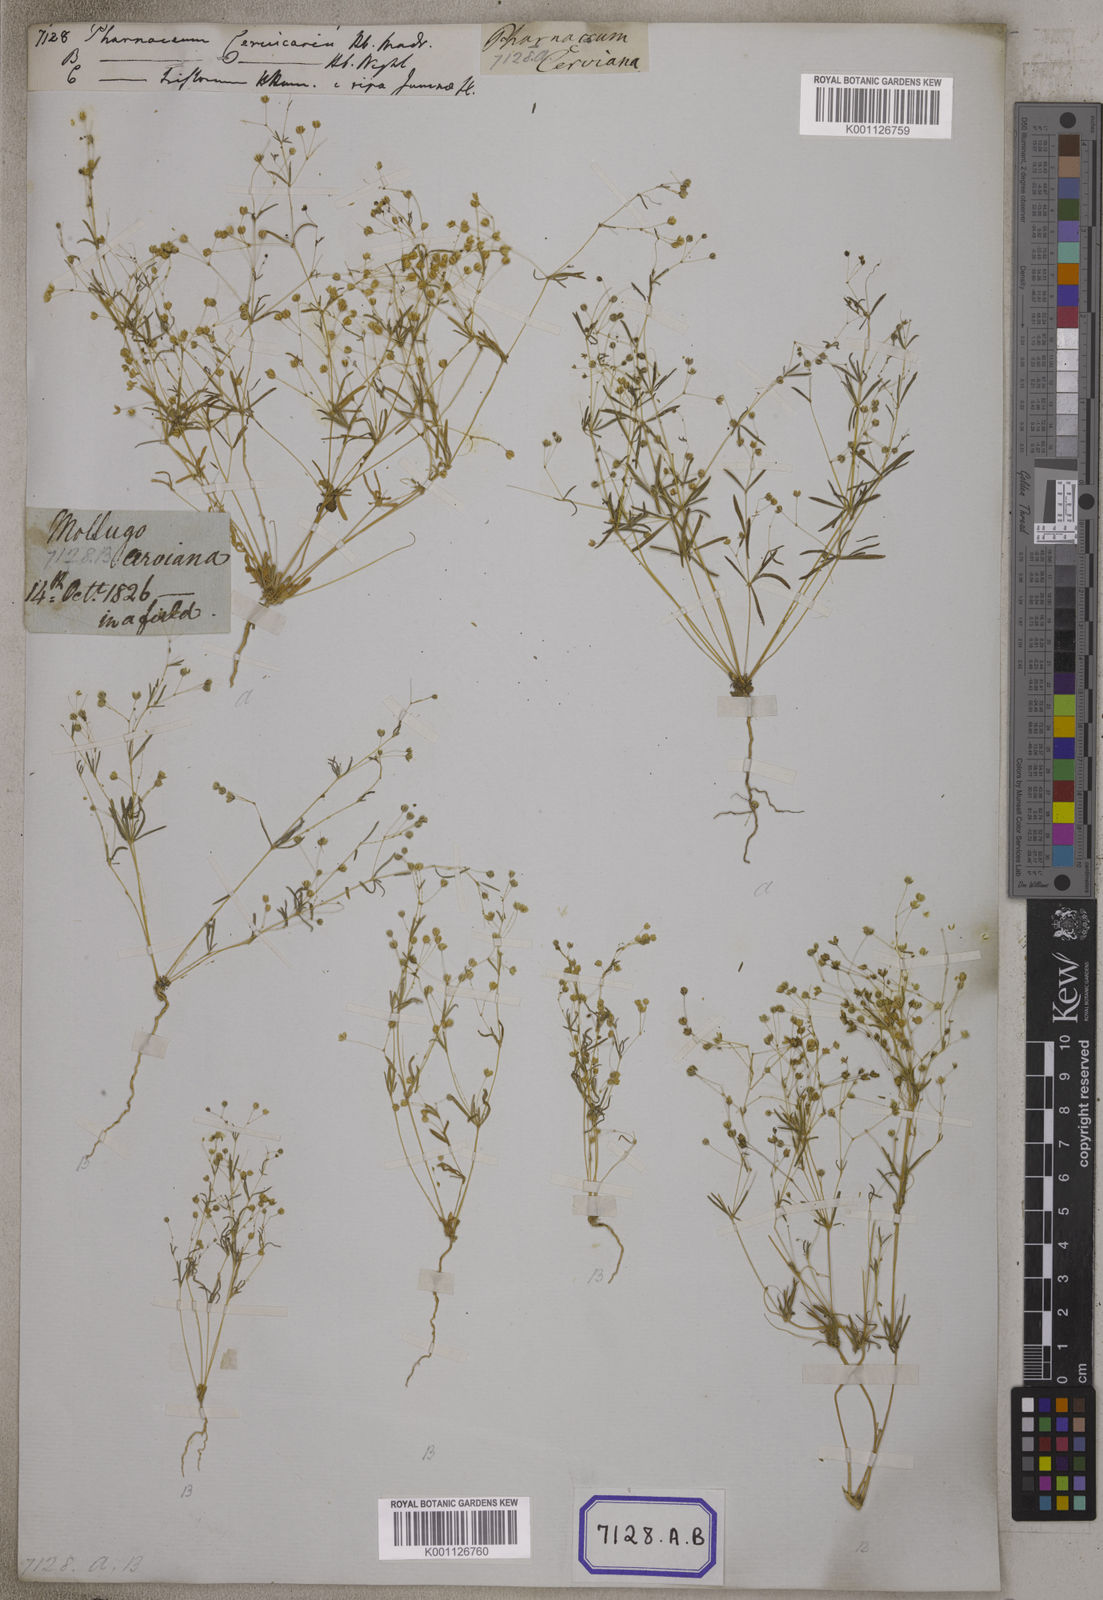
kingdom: Plantae
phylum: Tracheophyta
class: Magnoliopsida
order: Caryophyllales
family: Molluginaceae
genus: Pharnaceum
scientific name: Pharnaceum
